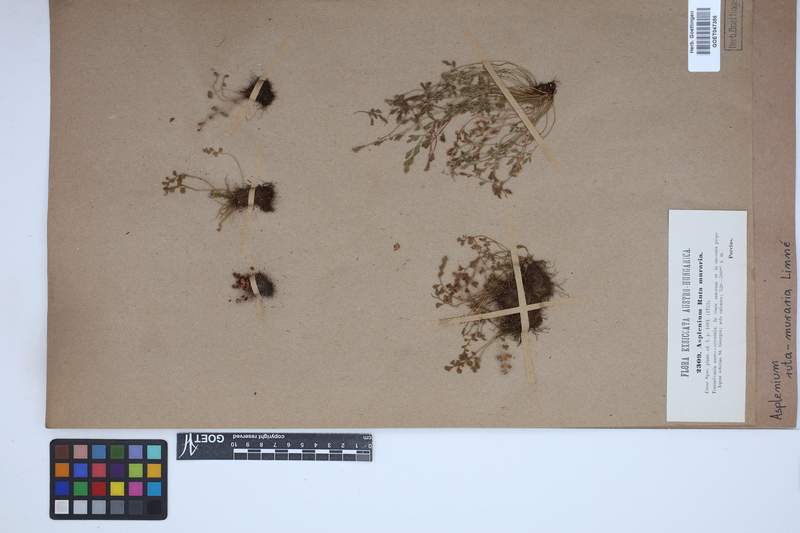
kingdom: Plantae
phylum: Tracheophyta
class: Polypodiopsida
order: Polypodiales
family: Aspleniaceae
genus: Asplenium
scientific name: Asplenium ruta-muraria
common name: Wall-rue
